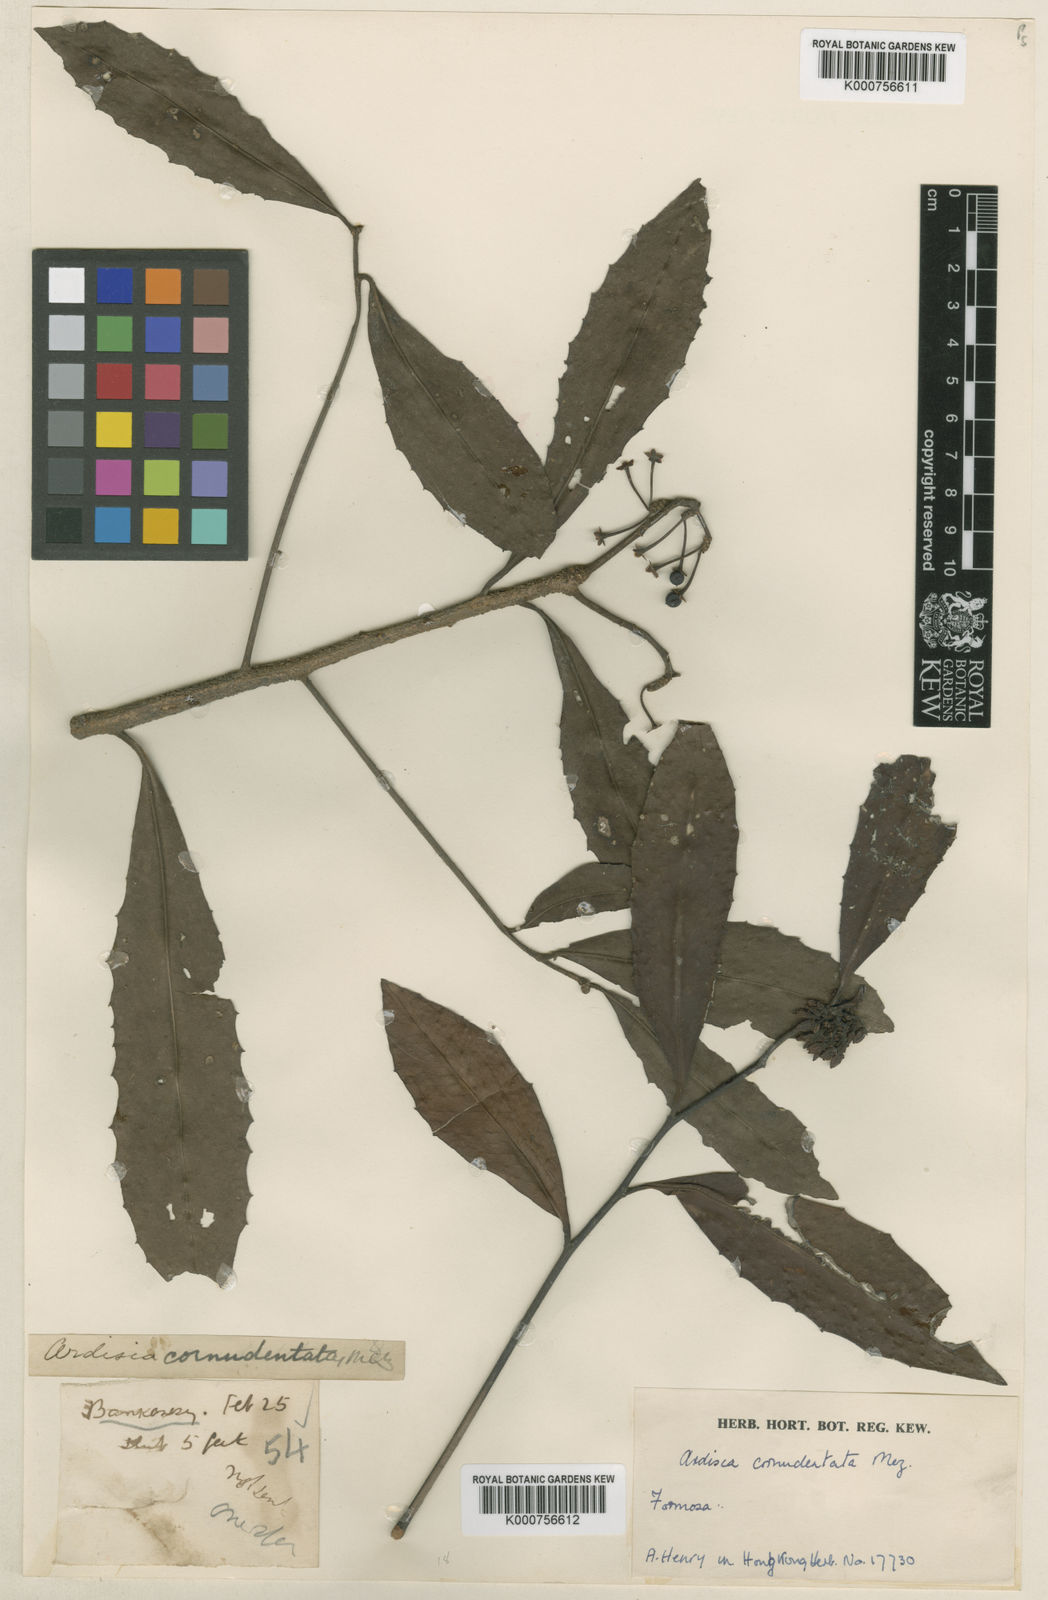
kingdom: Plantae
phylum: Tracheophyta
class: Magnoliopsida
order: Ericales
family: Primulaceae
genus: Ardisia
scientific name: Ardisia cornudentata
